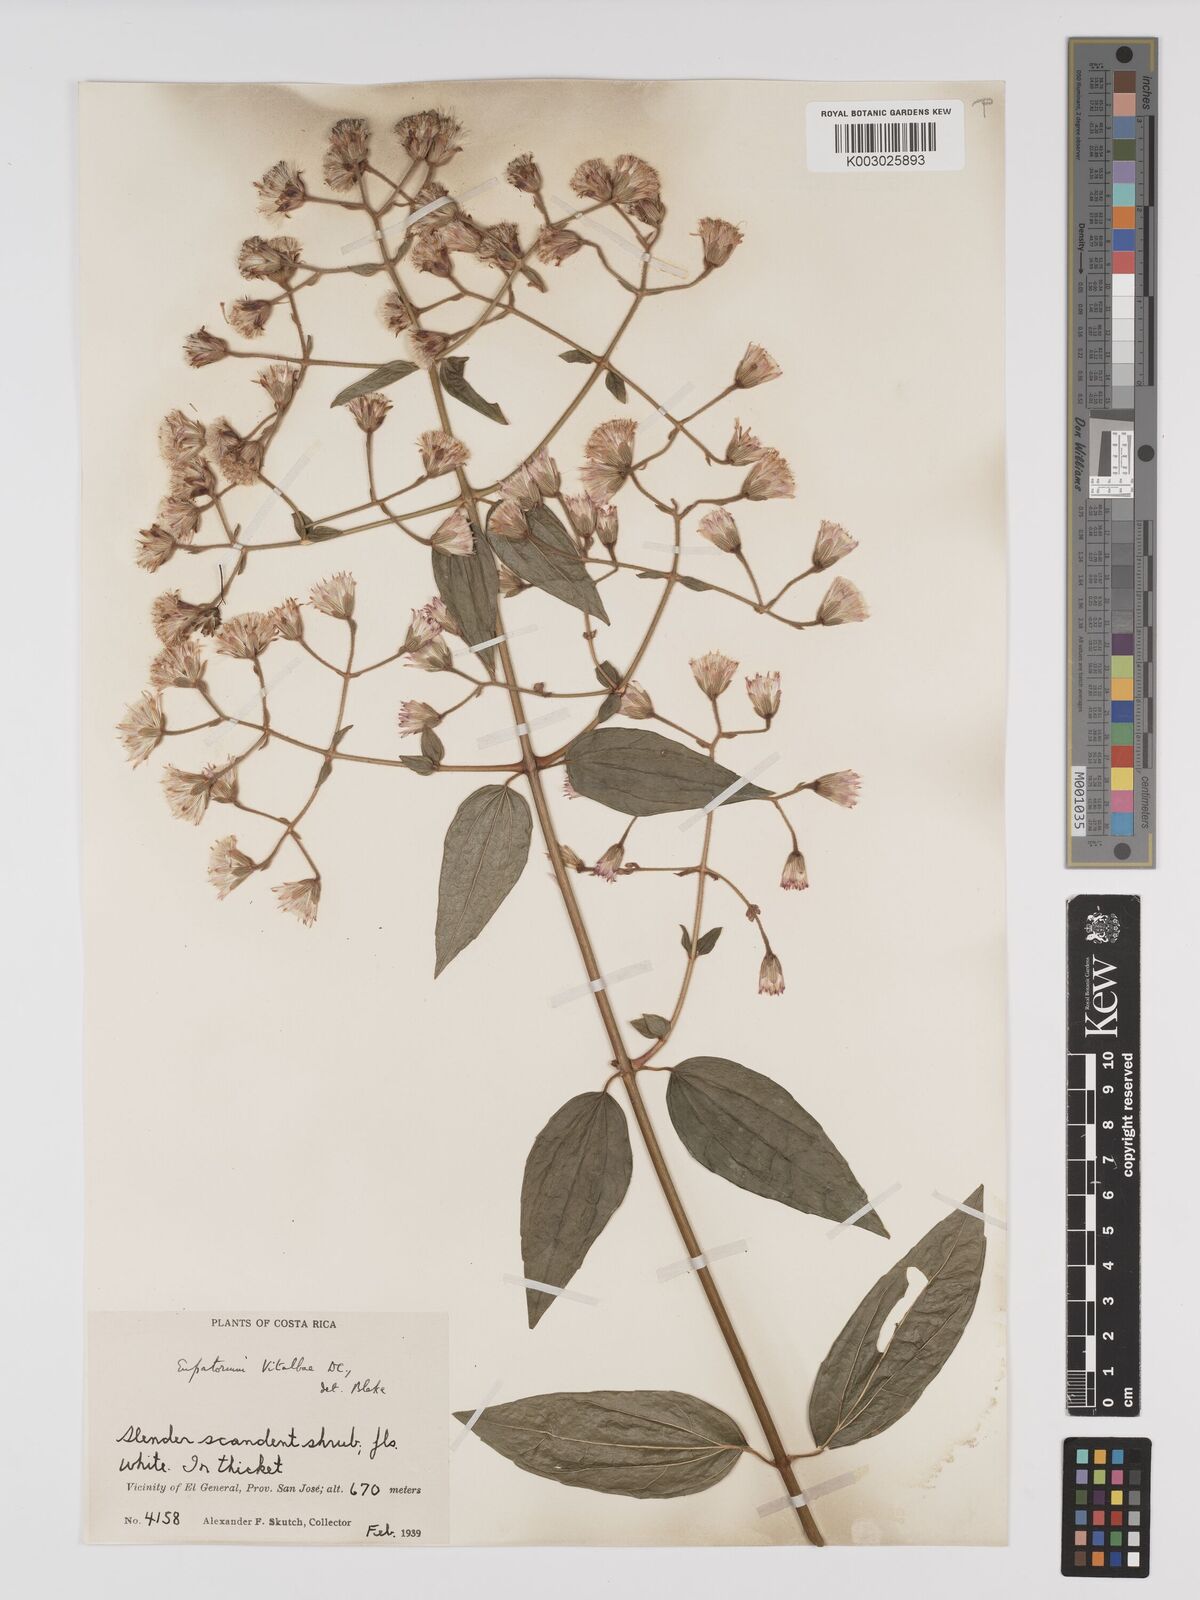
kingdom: Plantae
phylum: Tracheophyta
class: Magnoliopsida
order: Asterales
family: Asteraceae
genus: Heterocondylus
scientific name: Heterocondylus vitalbae
